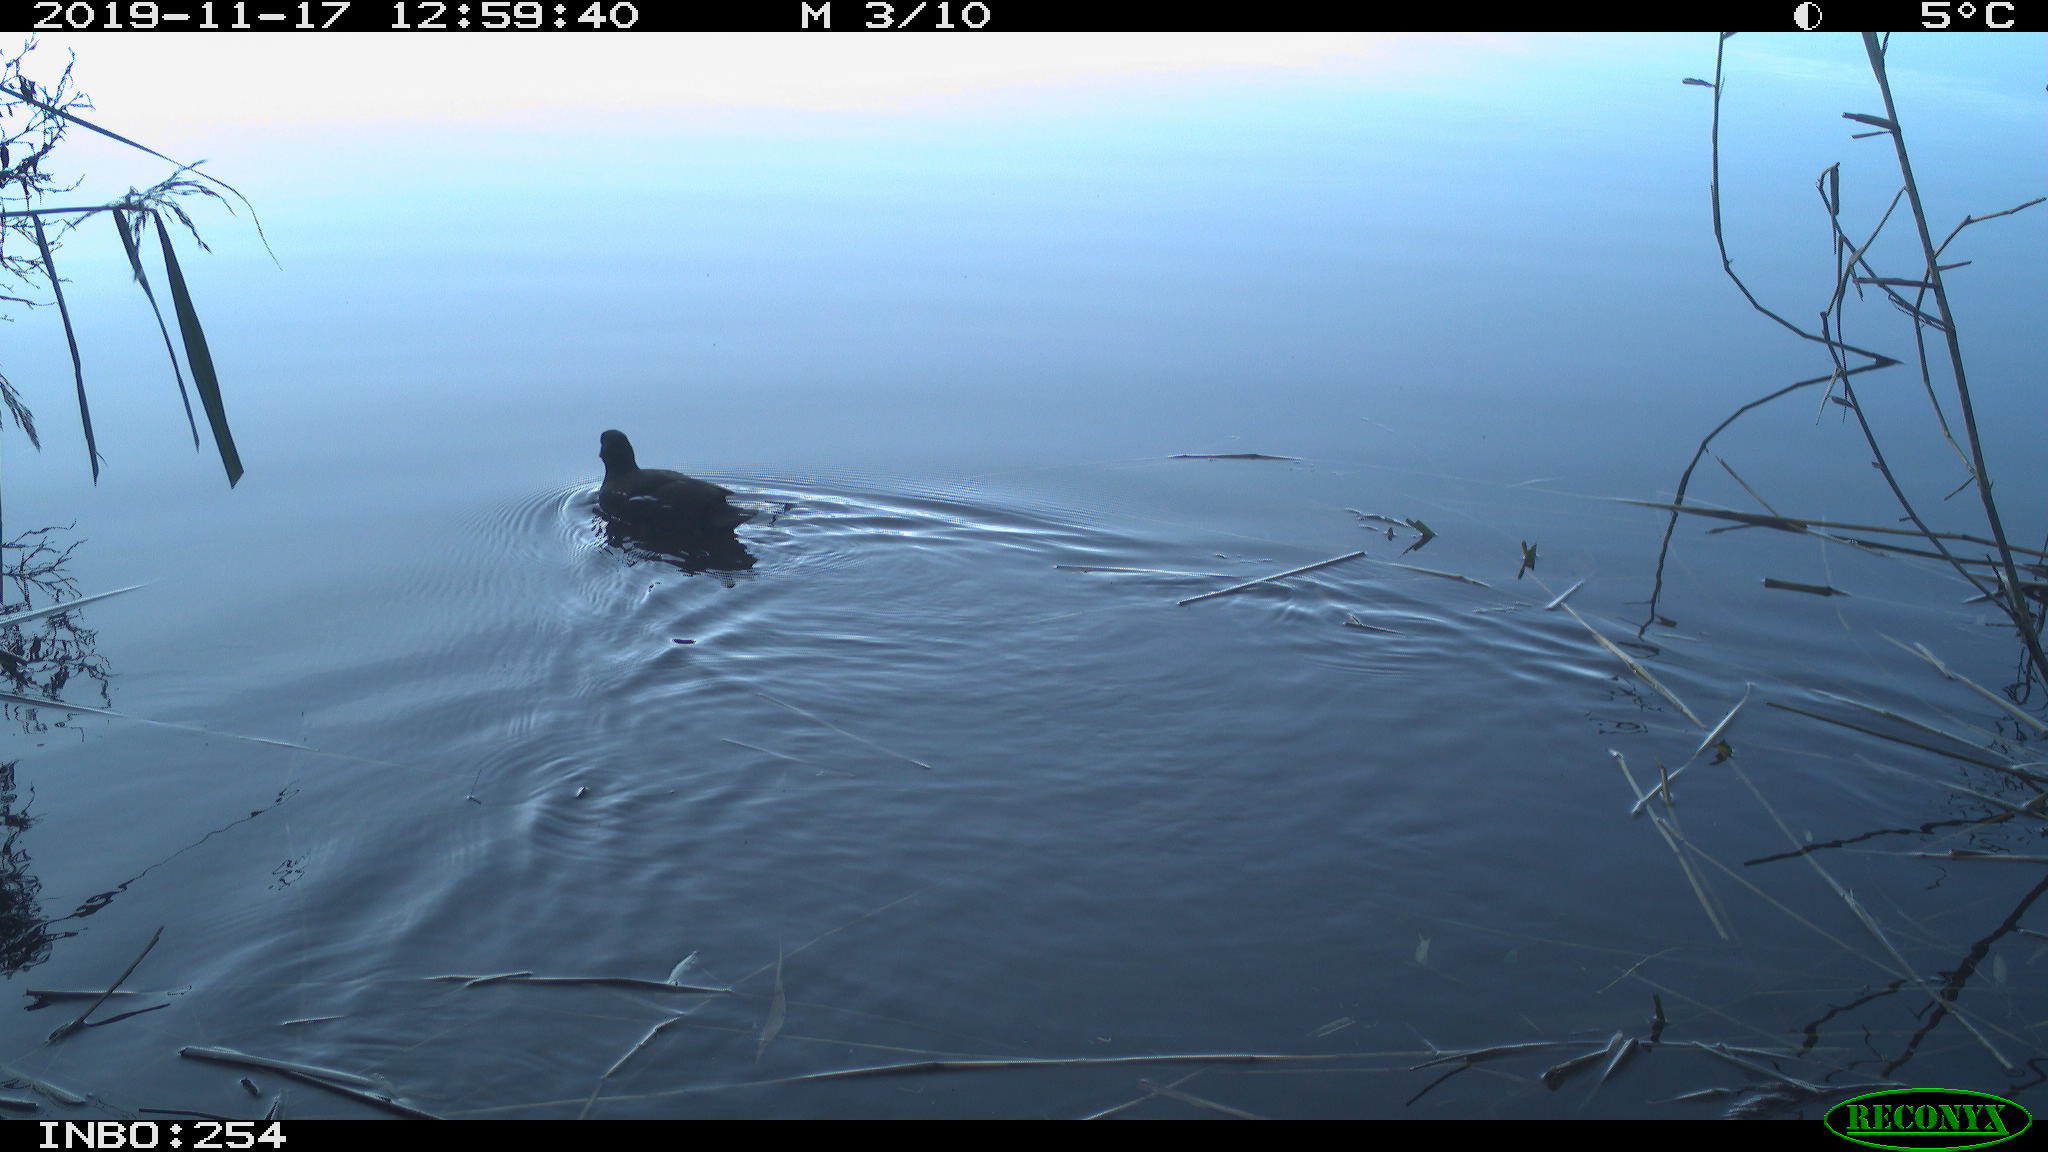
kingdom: Animalia
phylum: Chordata
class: Aves
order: Gruiformes
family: Rallidae
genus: Gallinula
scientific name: Gallinula chloropus
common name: Common moorhen
